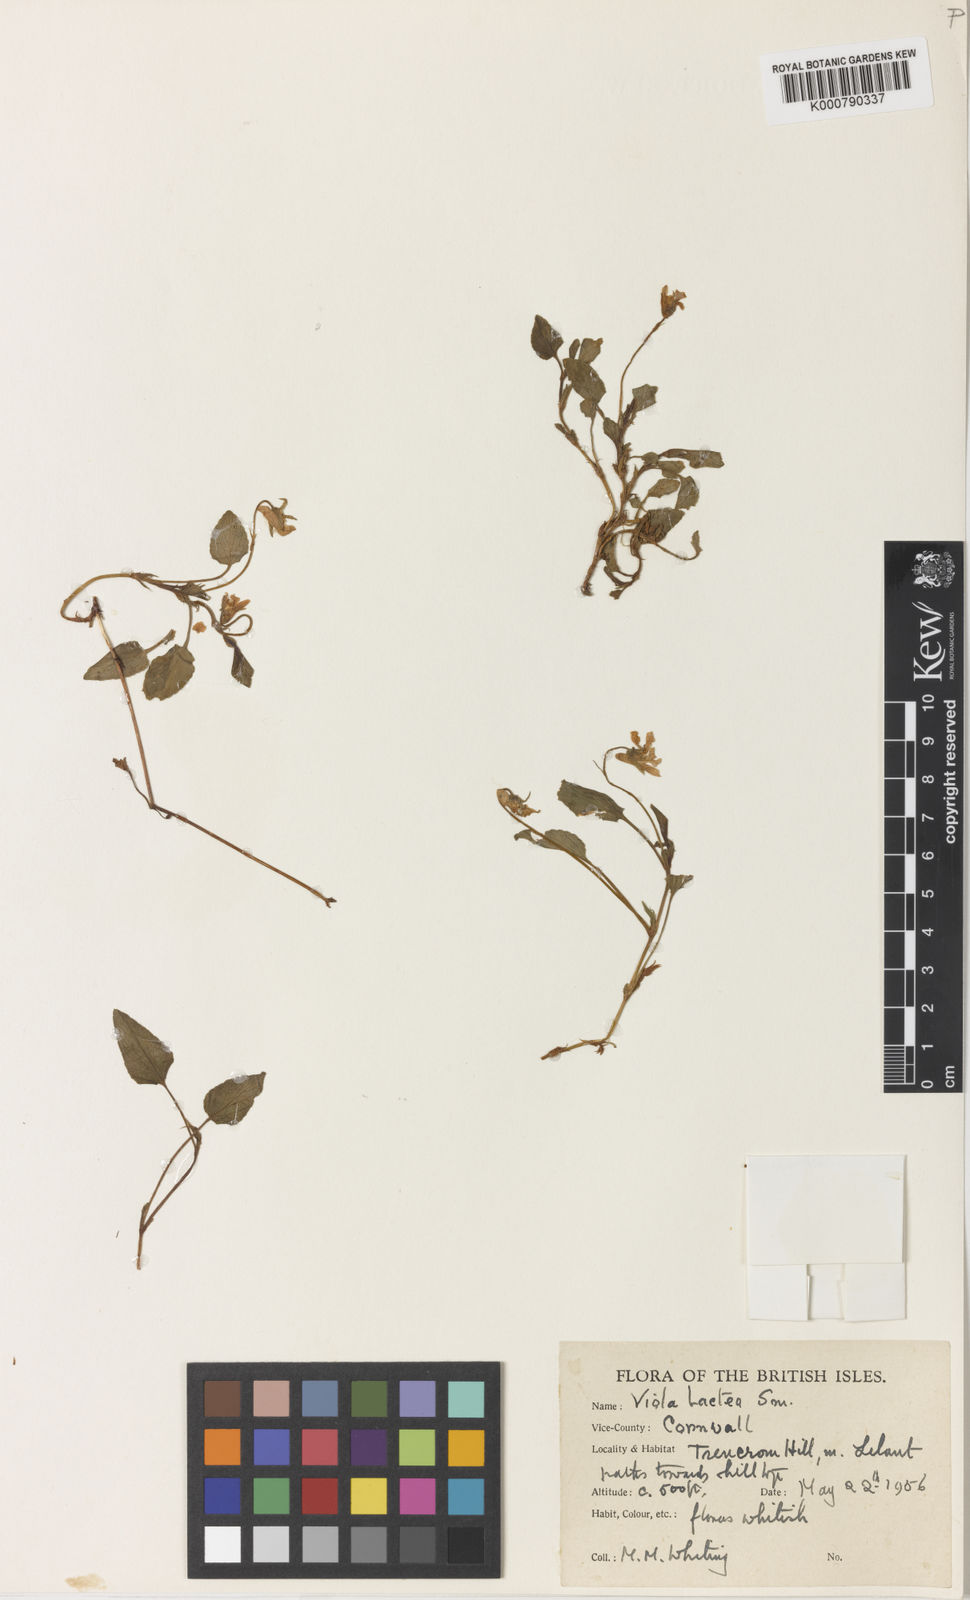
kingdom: Plantae
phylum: Tracheophyta
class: Magnoliopsida
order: Malpighiales
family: Violaceae
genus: Viola
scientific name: Viola lactea
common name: Pale dog-violet
